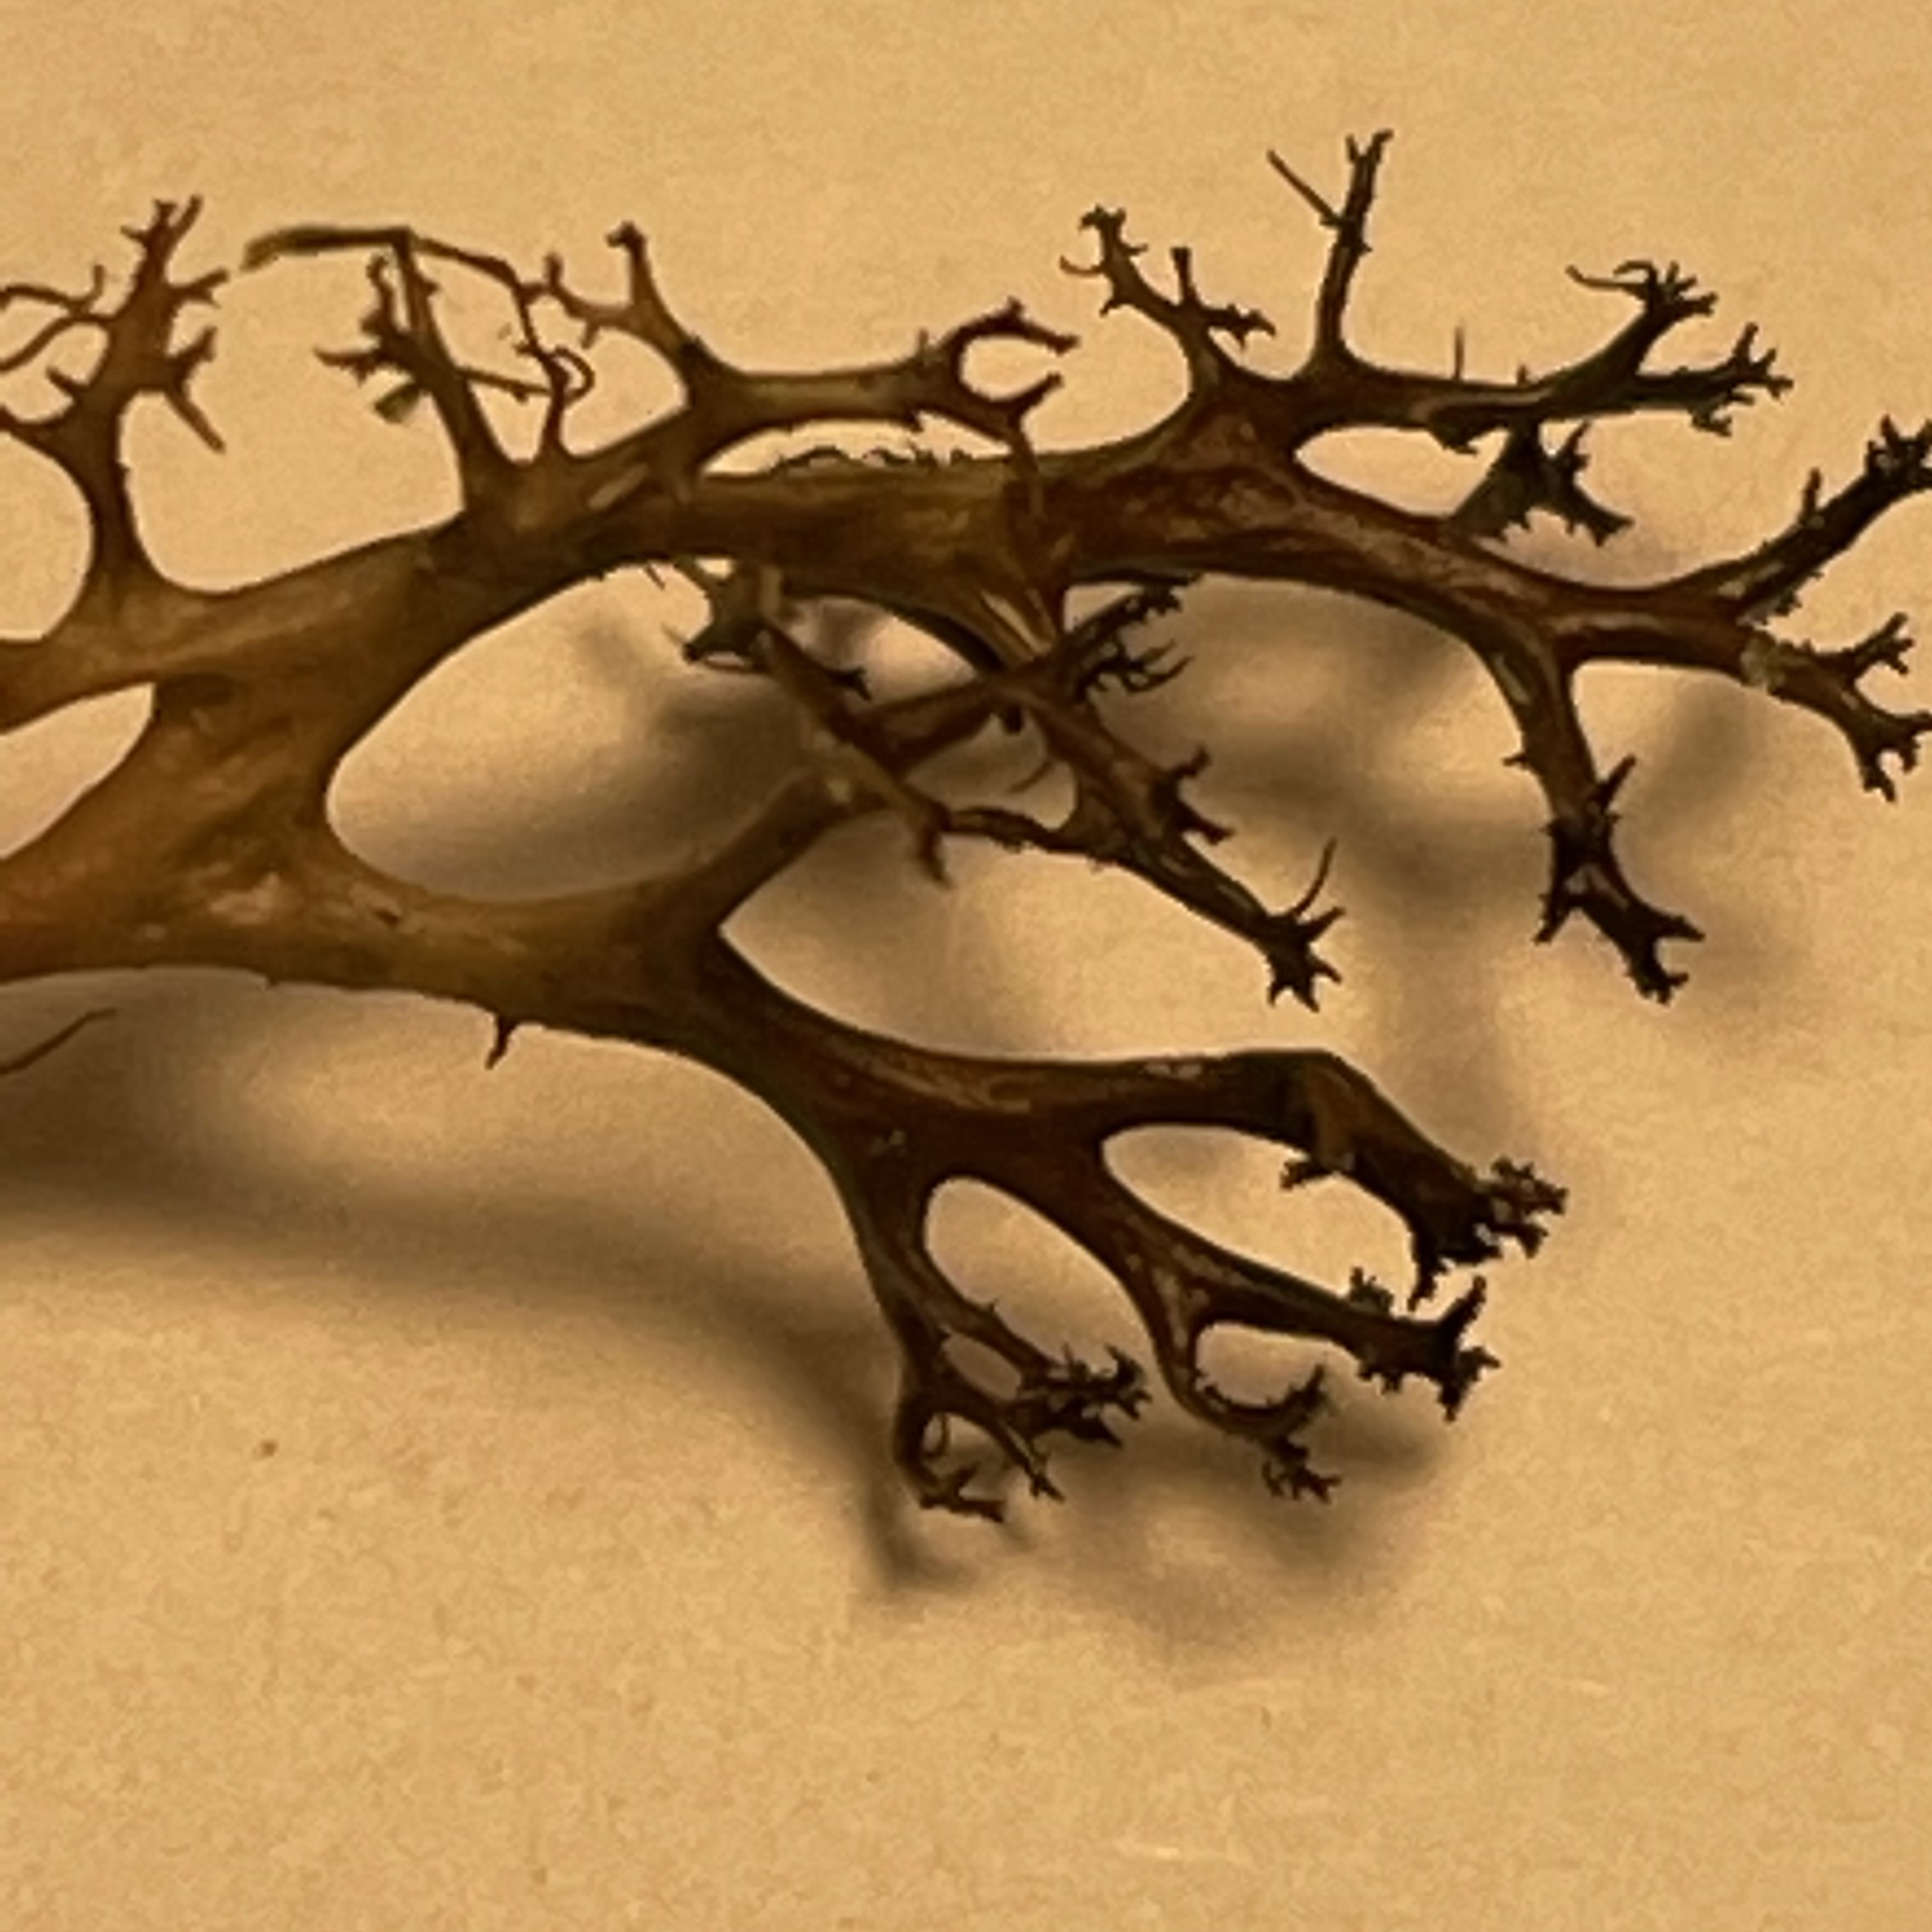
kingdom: Fungi
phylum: Ascomycota
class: Lecanoromycetes
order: Lecanorales
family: Parmeliaceae
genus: Cetraria
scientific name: Cetraria aculeata
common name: grubet tjørnelav
